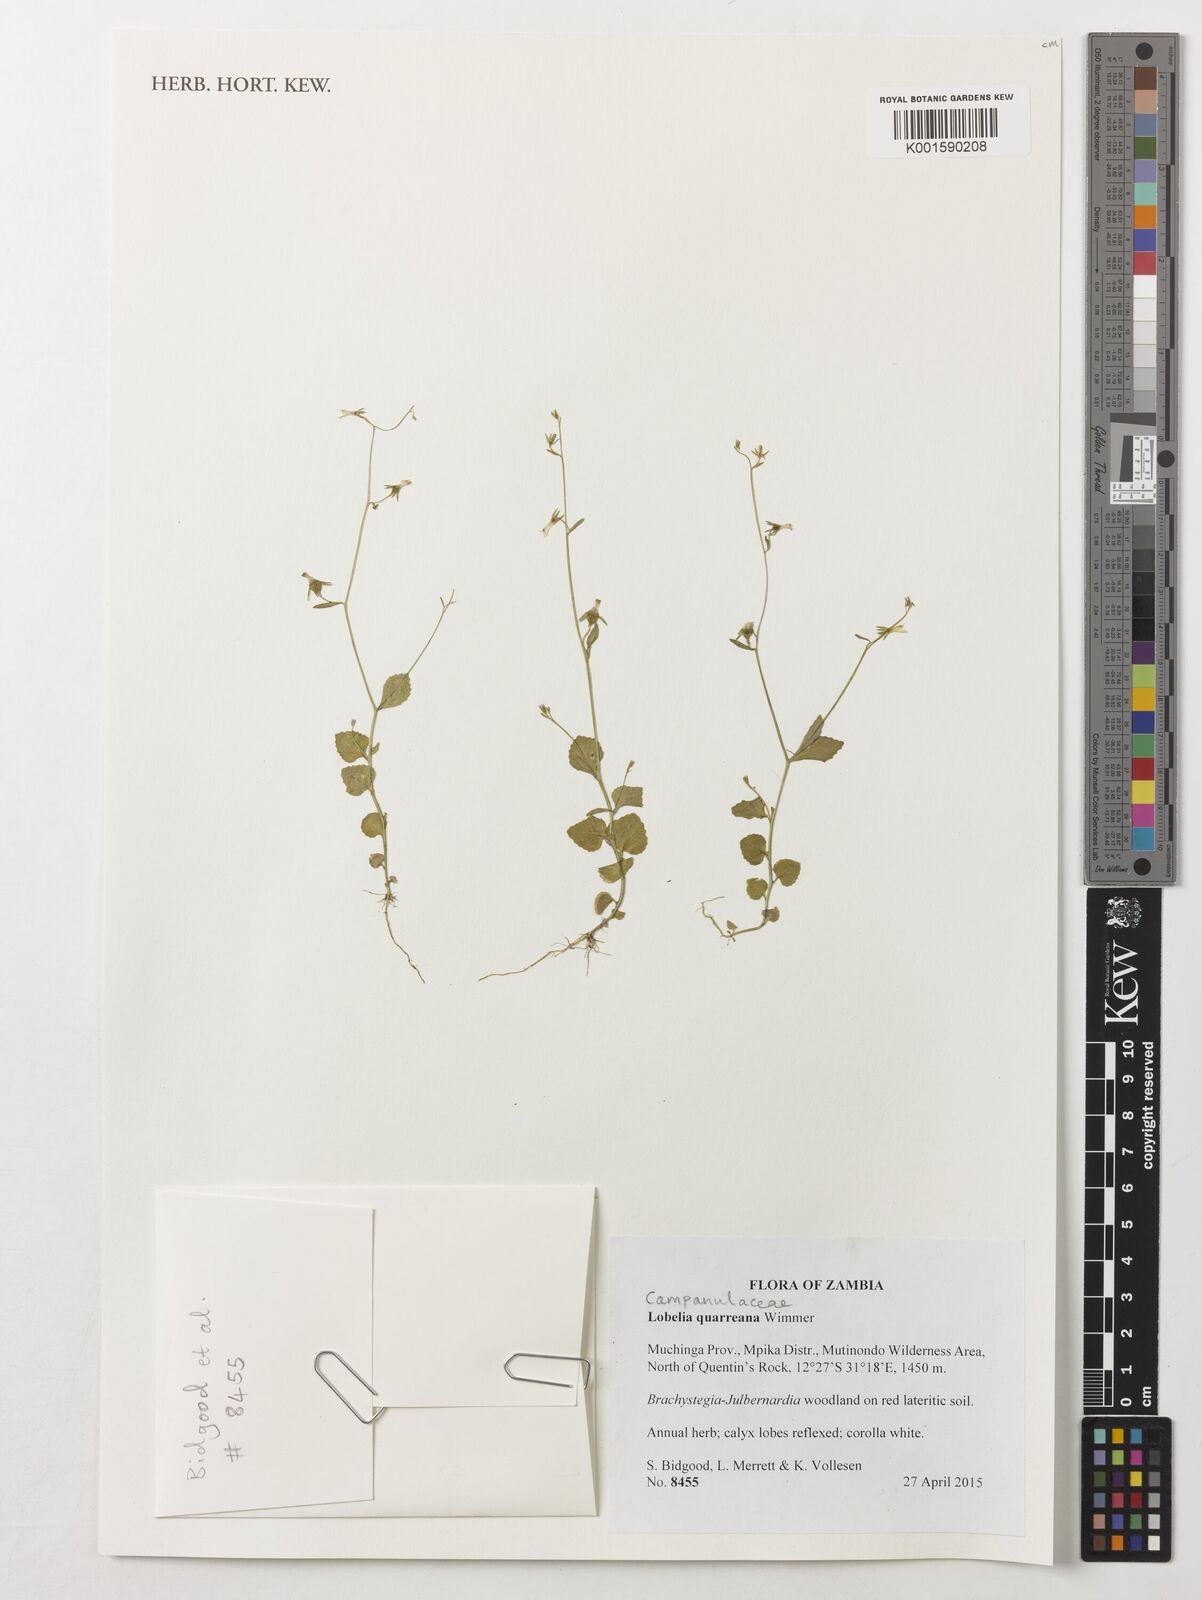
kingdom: Plantae
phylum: Tracheophyta
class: Magnoliopsida
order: Asterales
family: Campanulaceae
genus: Lobelia
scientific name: Lobelia quarreana
